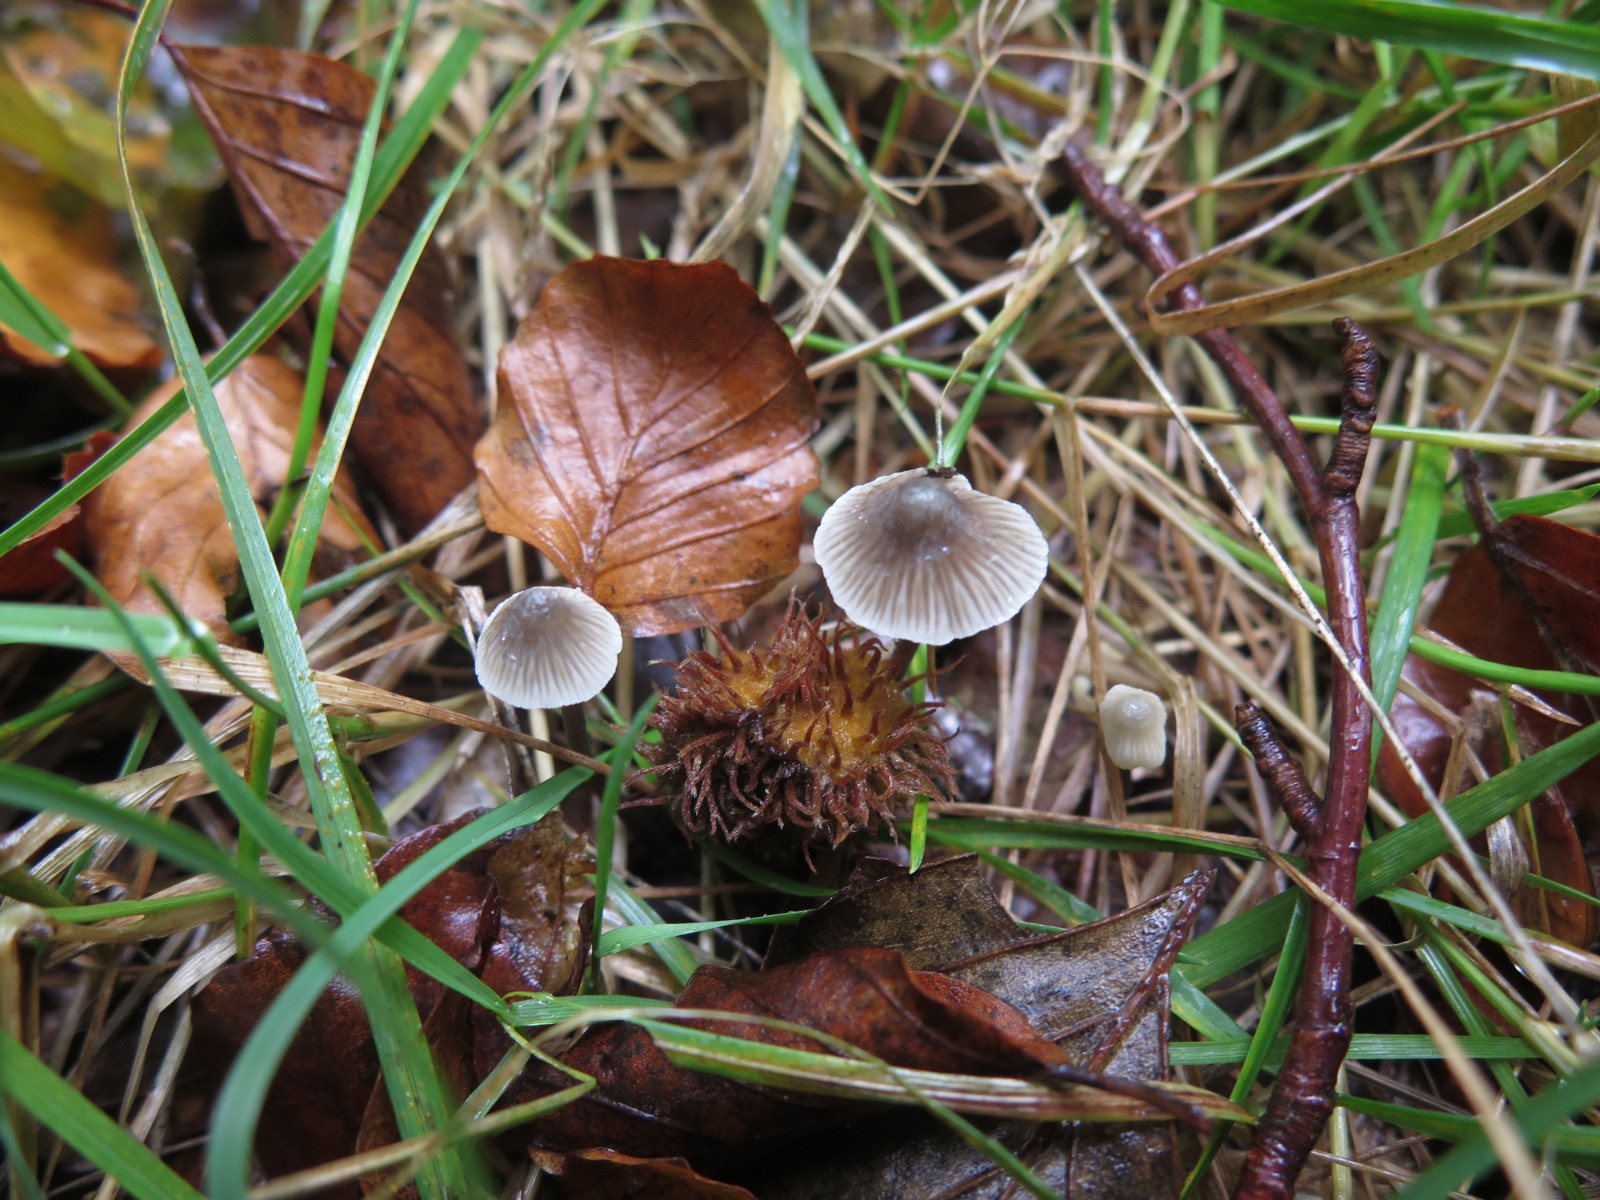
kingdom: Fungi
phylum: Basidiomycota
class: Agaricomycetes
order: Agaricales
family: Mycenaceae
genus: Mycena
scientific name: Mycena flavescens
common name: grågul huesvamp
